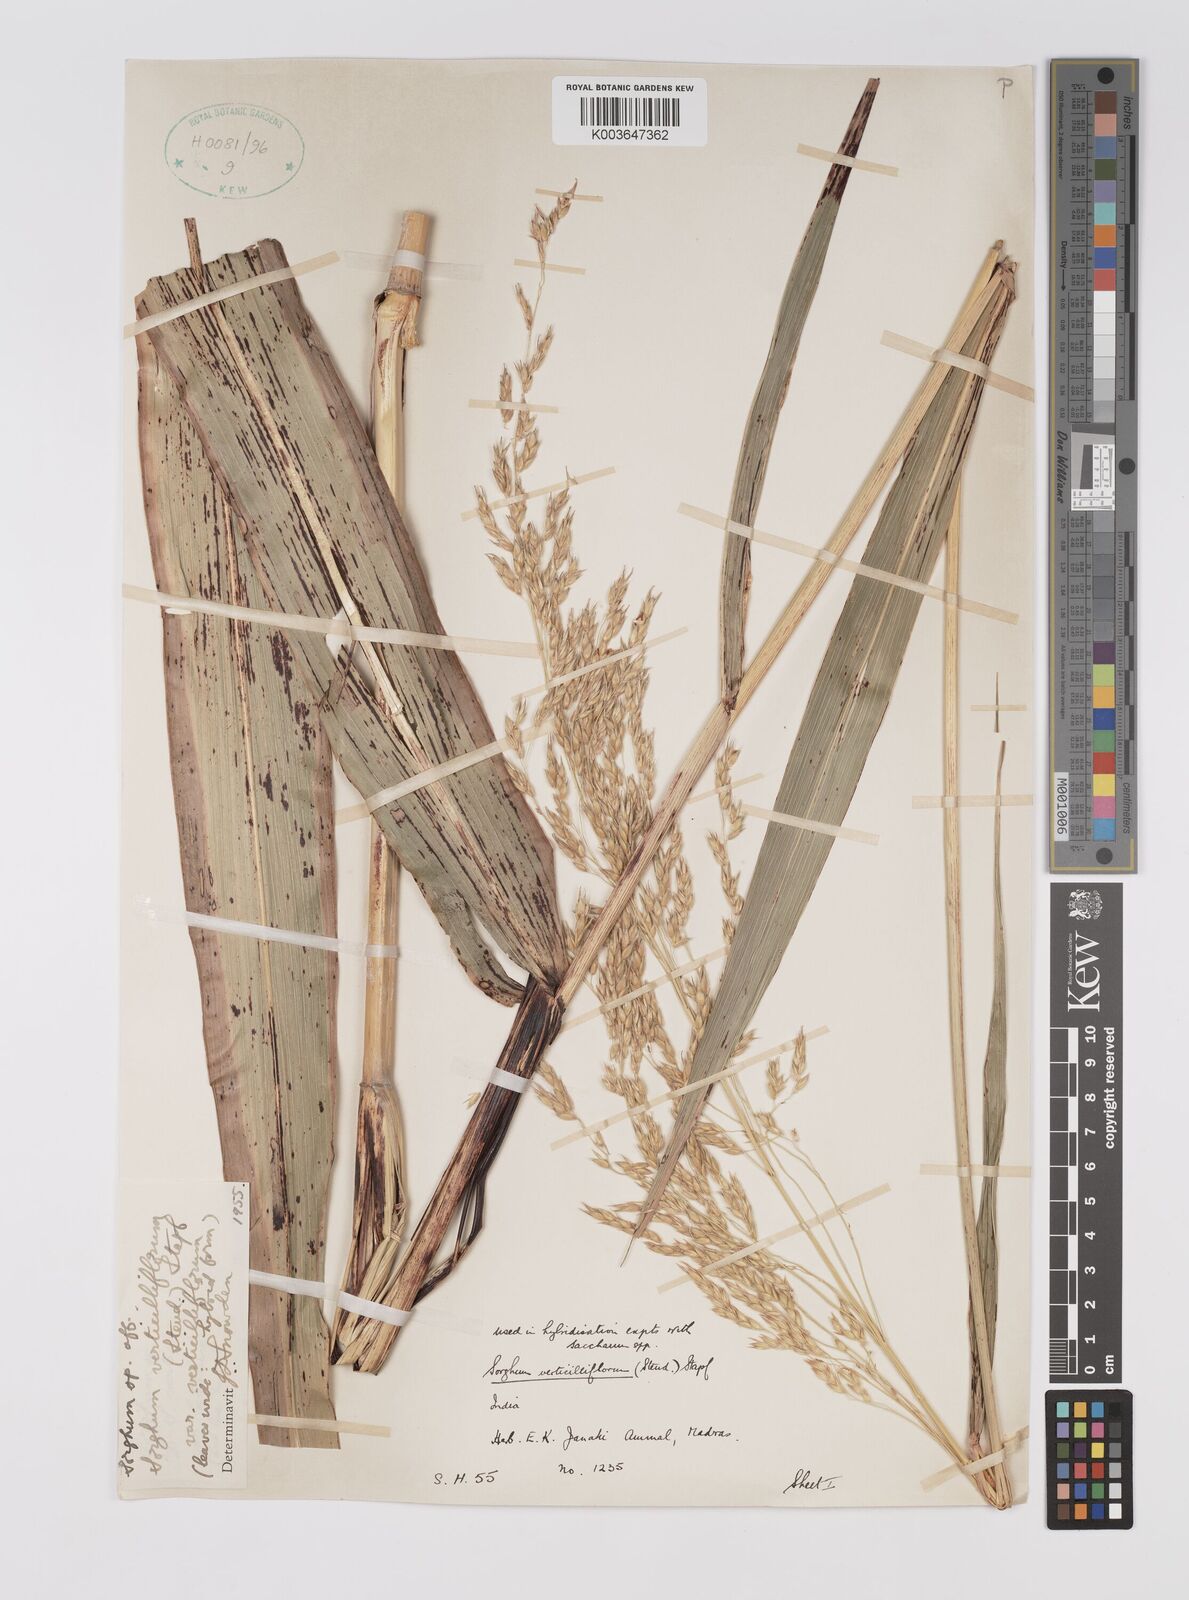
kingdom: Plantae
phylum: Tracheophyta
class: Liliopsida
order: Poales
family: Poaceae
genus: Sorghum
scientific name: Sorghum arundinaceum
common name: Sorghum
